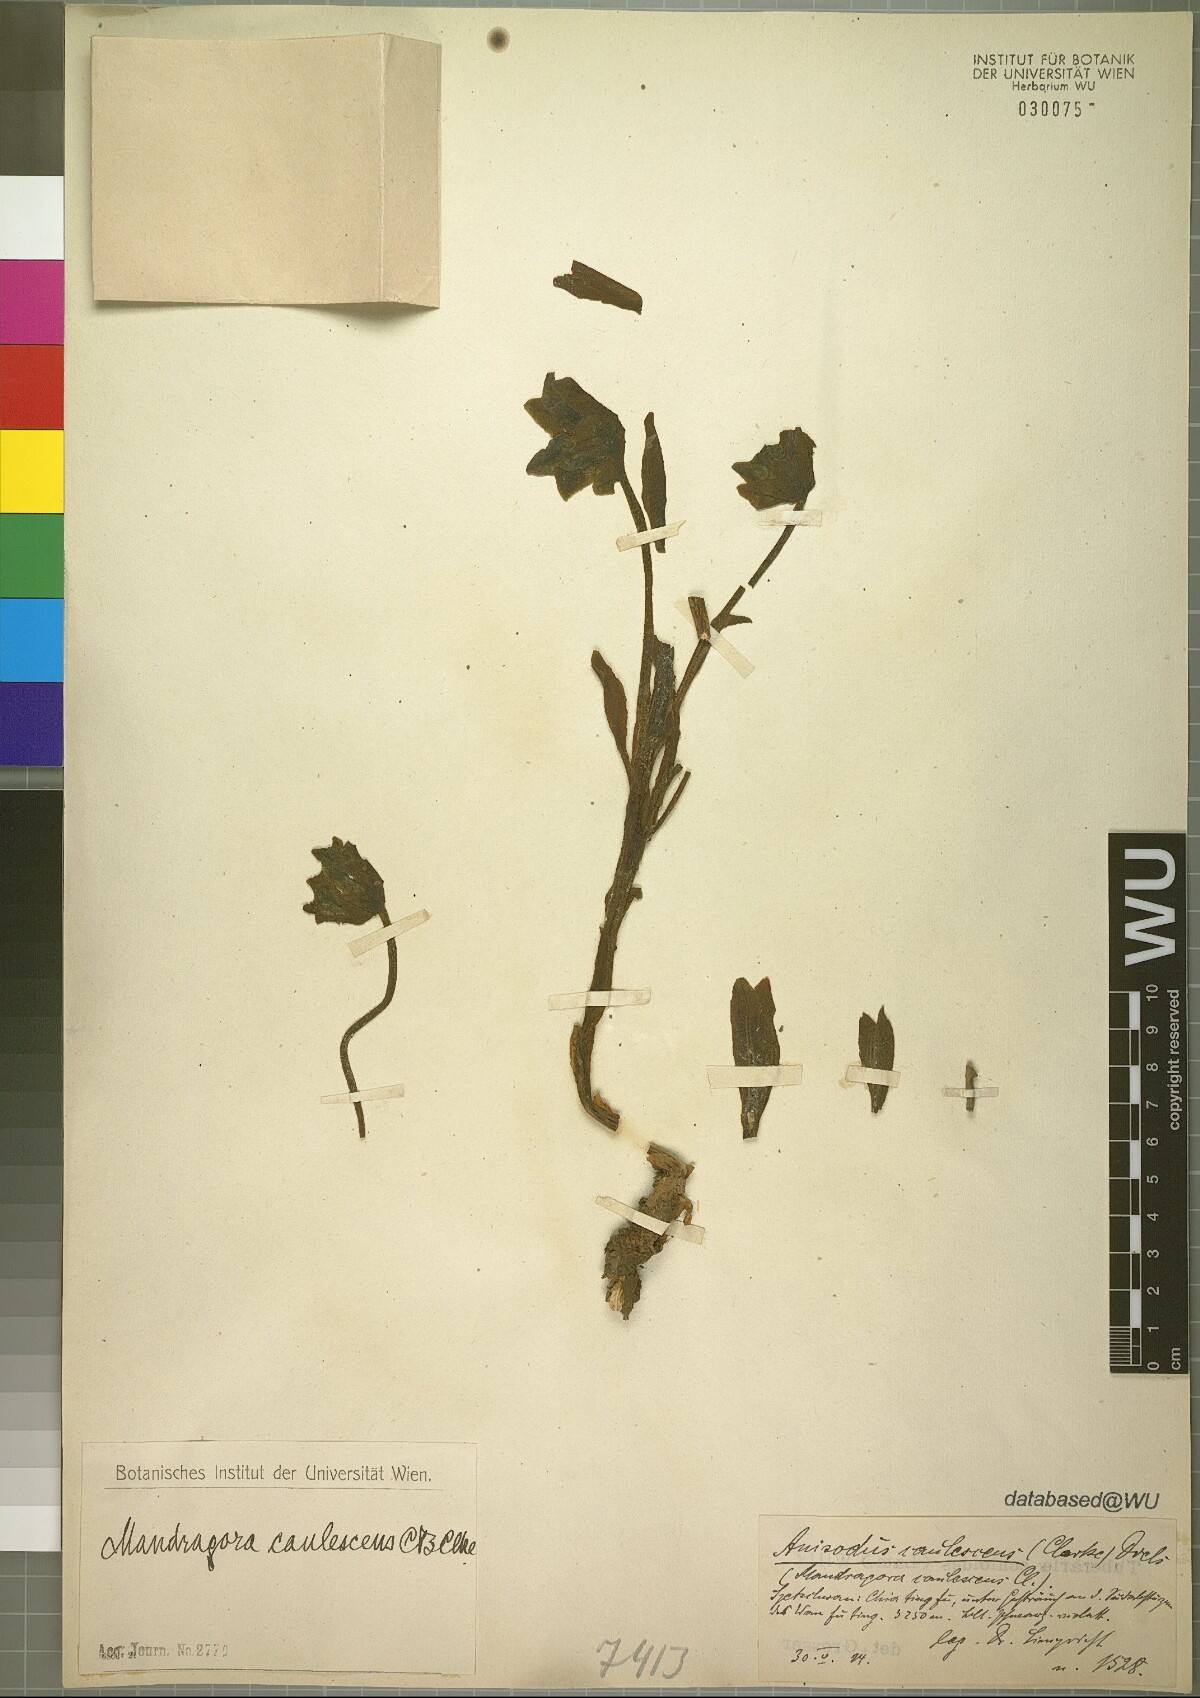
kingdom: Plantae
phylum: Tracheophyta
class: Magnoliopsida
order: Solanales
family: Solanaceae
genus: Mandragora
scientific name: Mandragora caulescens
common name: Himalayan mandrake
